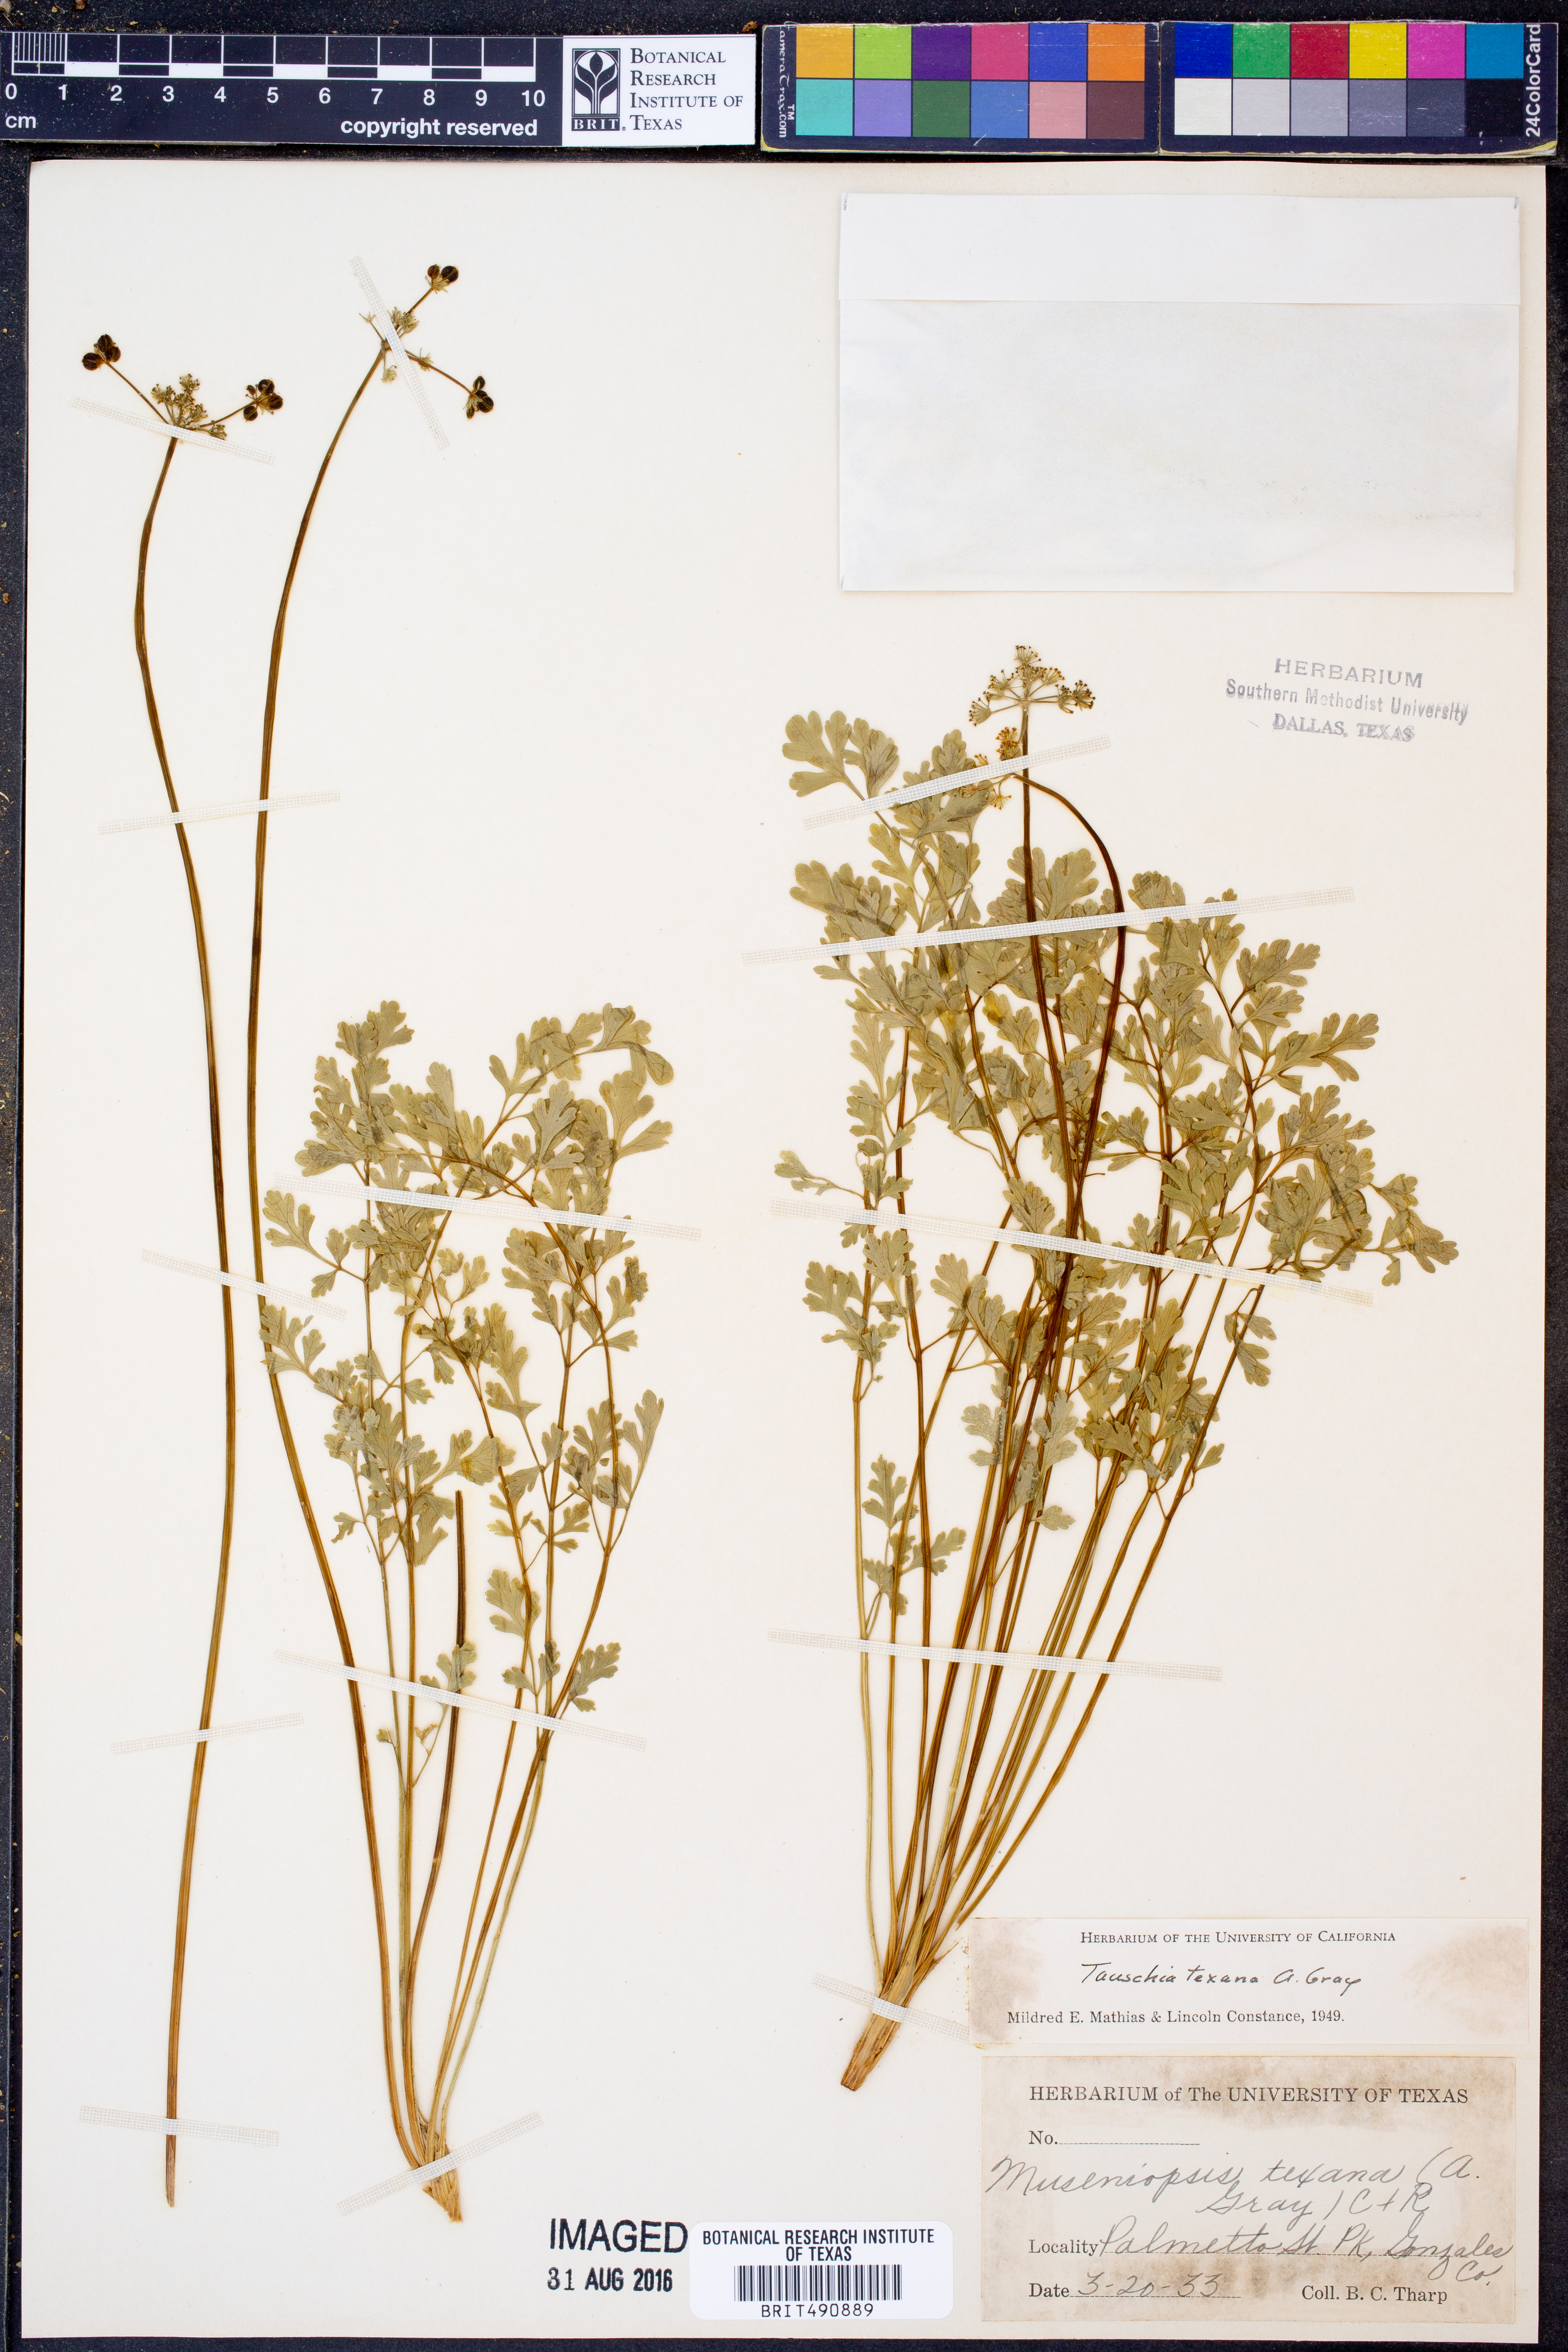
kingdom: Plantae
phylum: Tracheophyta
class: Magnoliopsida
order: Apiales
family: Apiaceae
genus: Tauschia
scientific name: Tauschia texana
